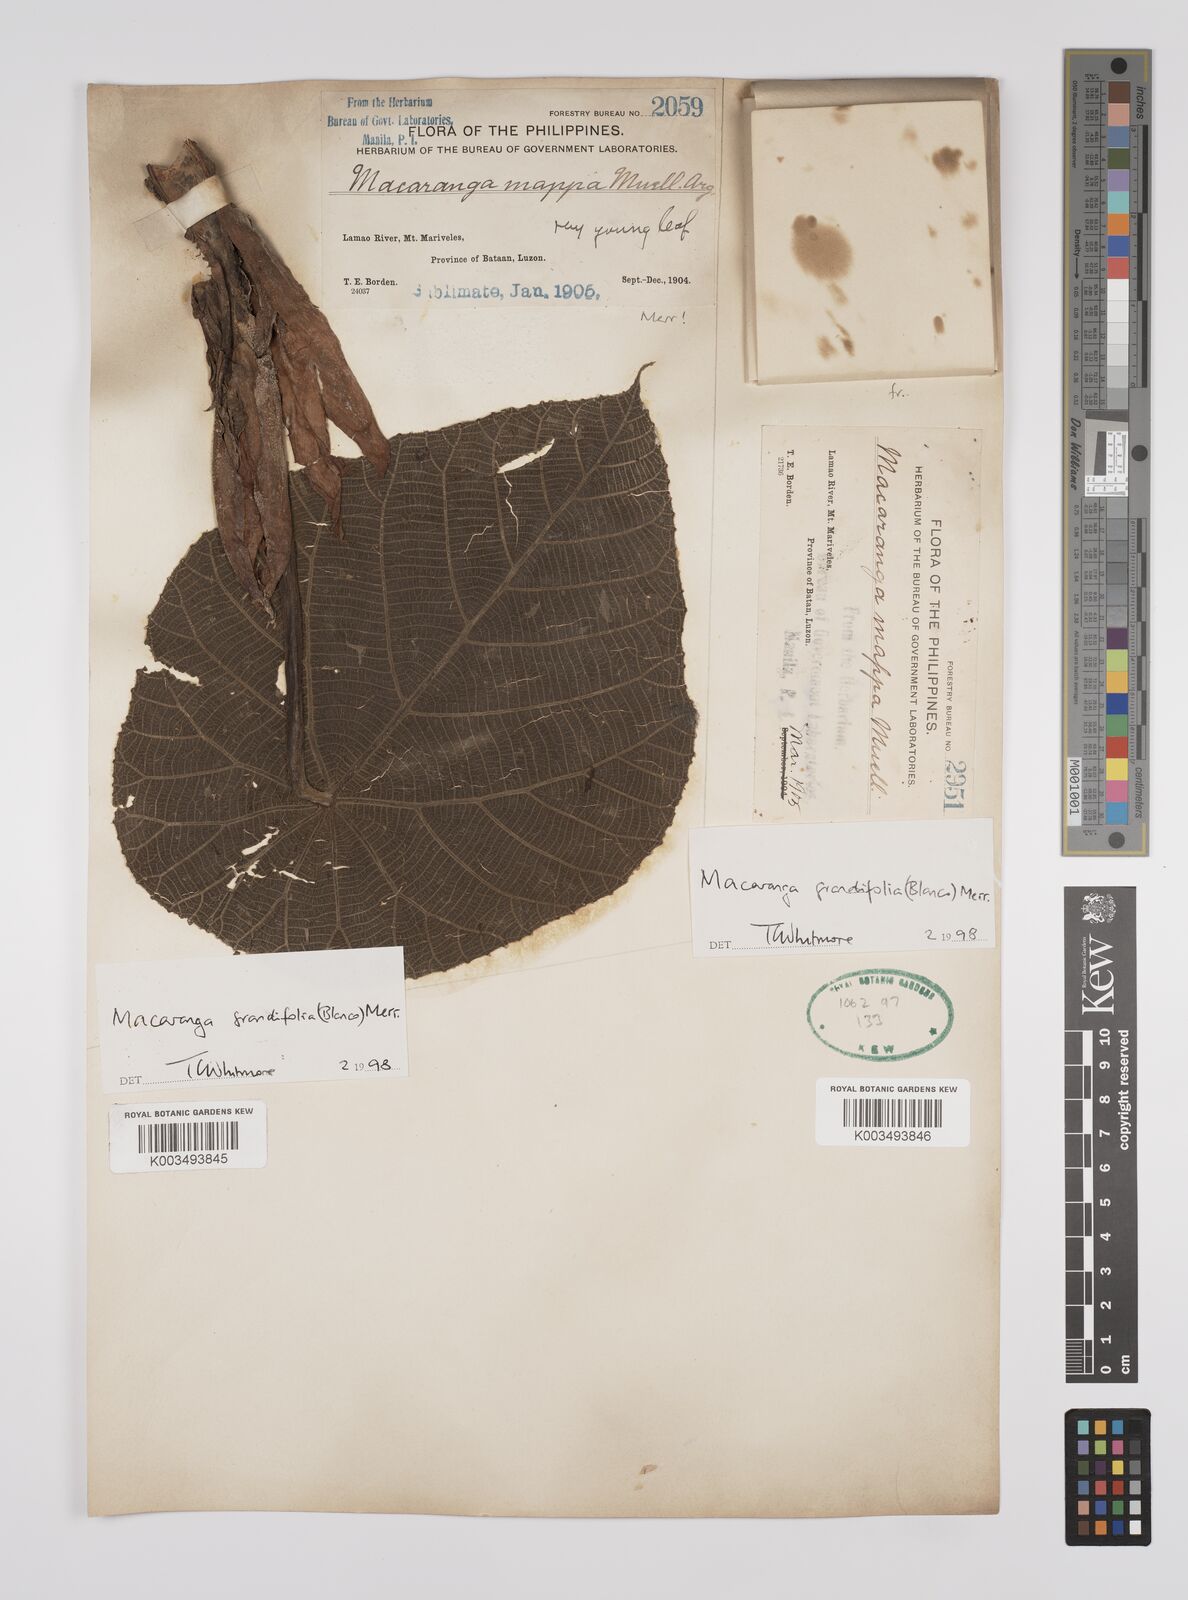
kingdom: Plantae
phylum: Tracheophyta
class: Magnoliopsida
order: Malpighiales
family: Euphorbiaceae
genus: Macaranga
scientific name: Macaranga grandifolia
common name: Coraltree
